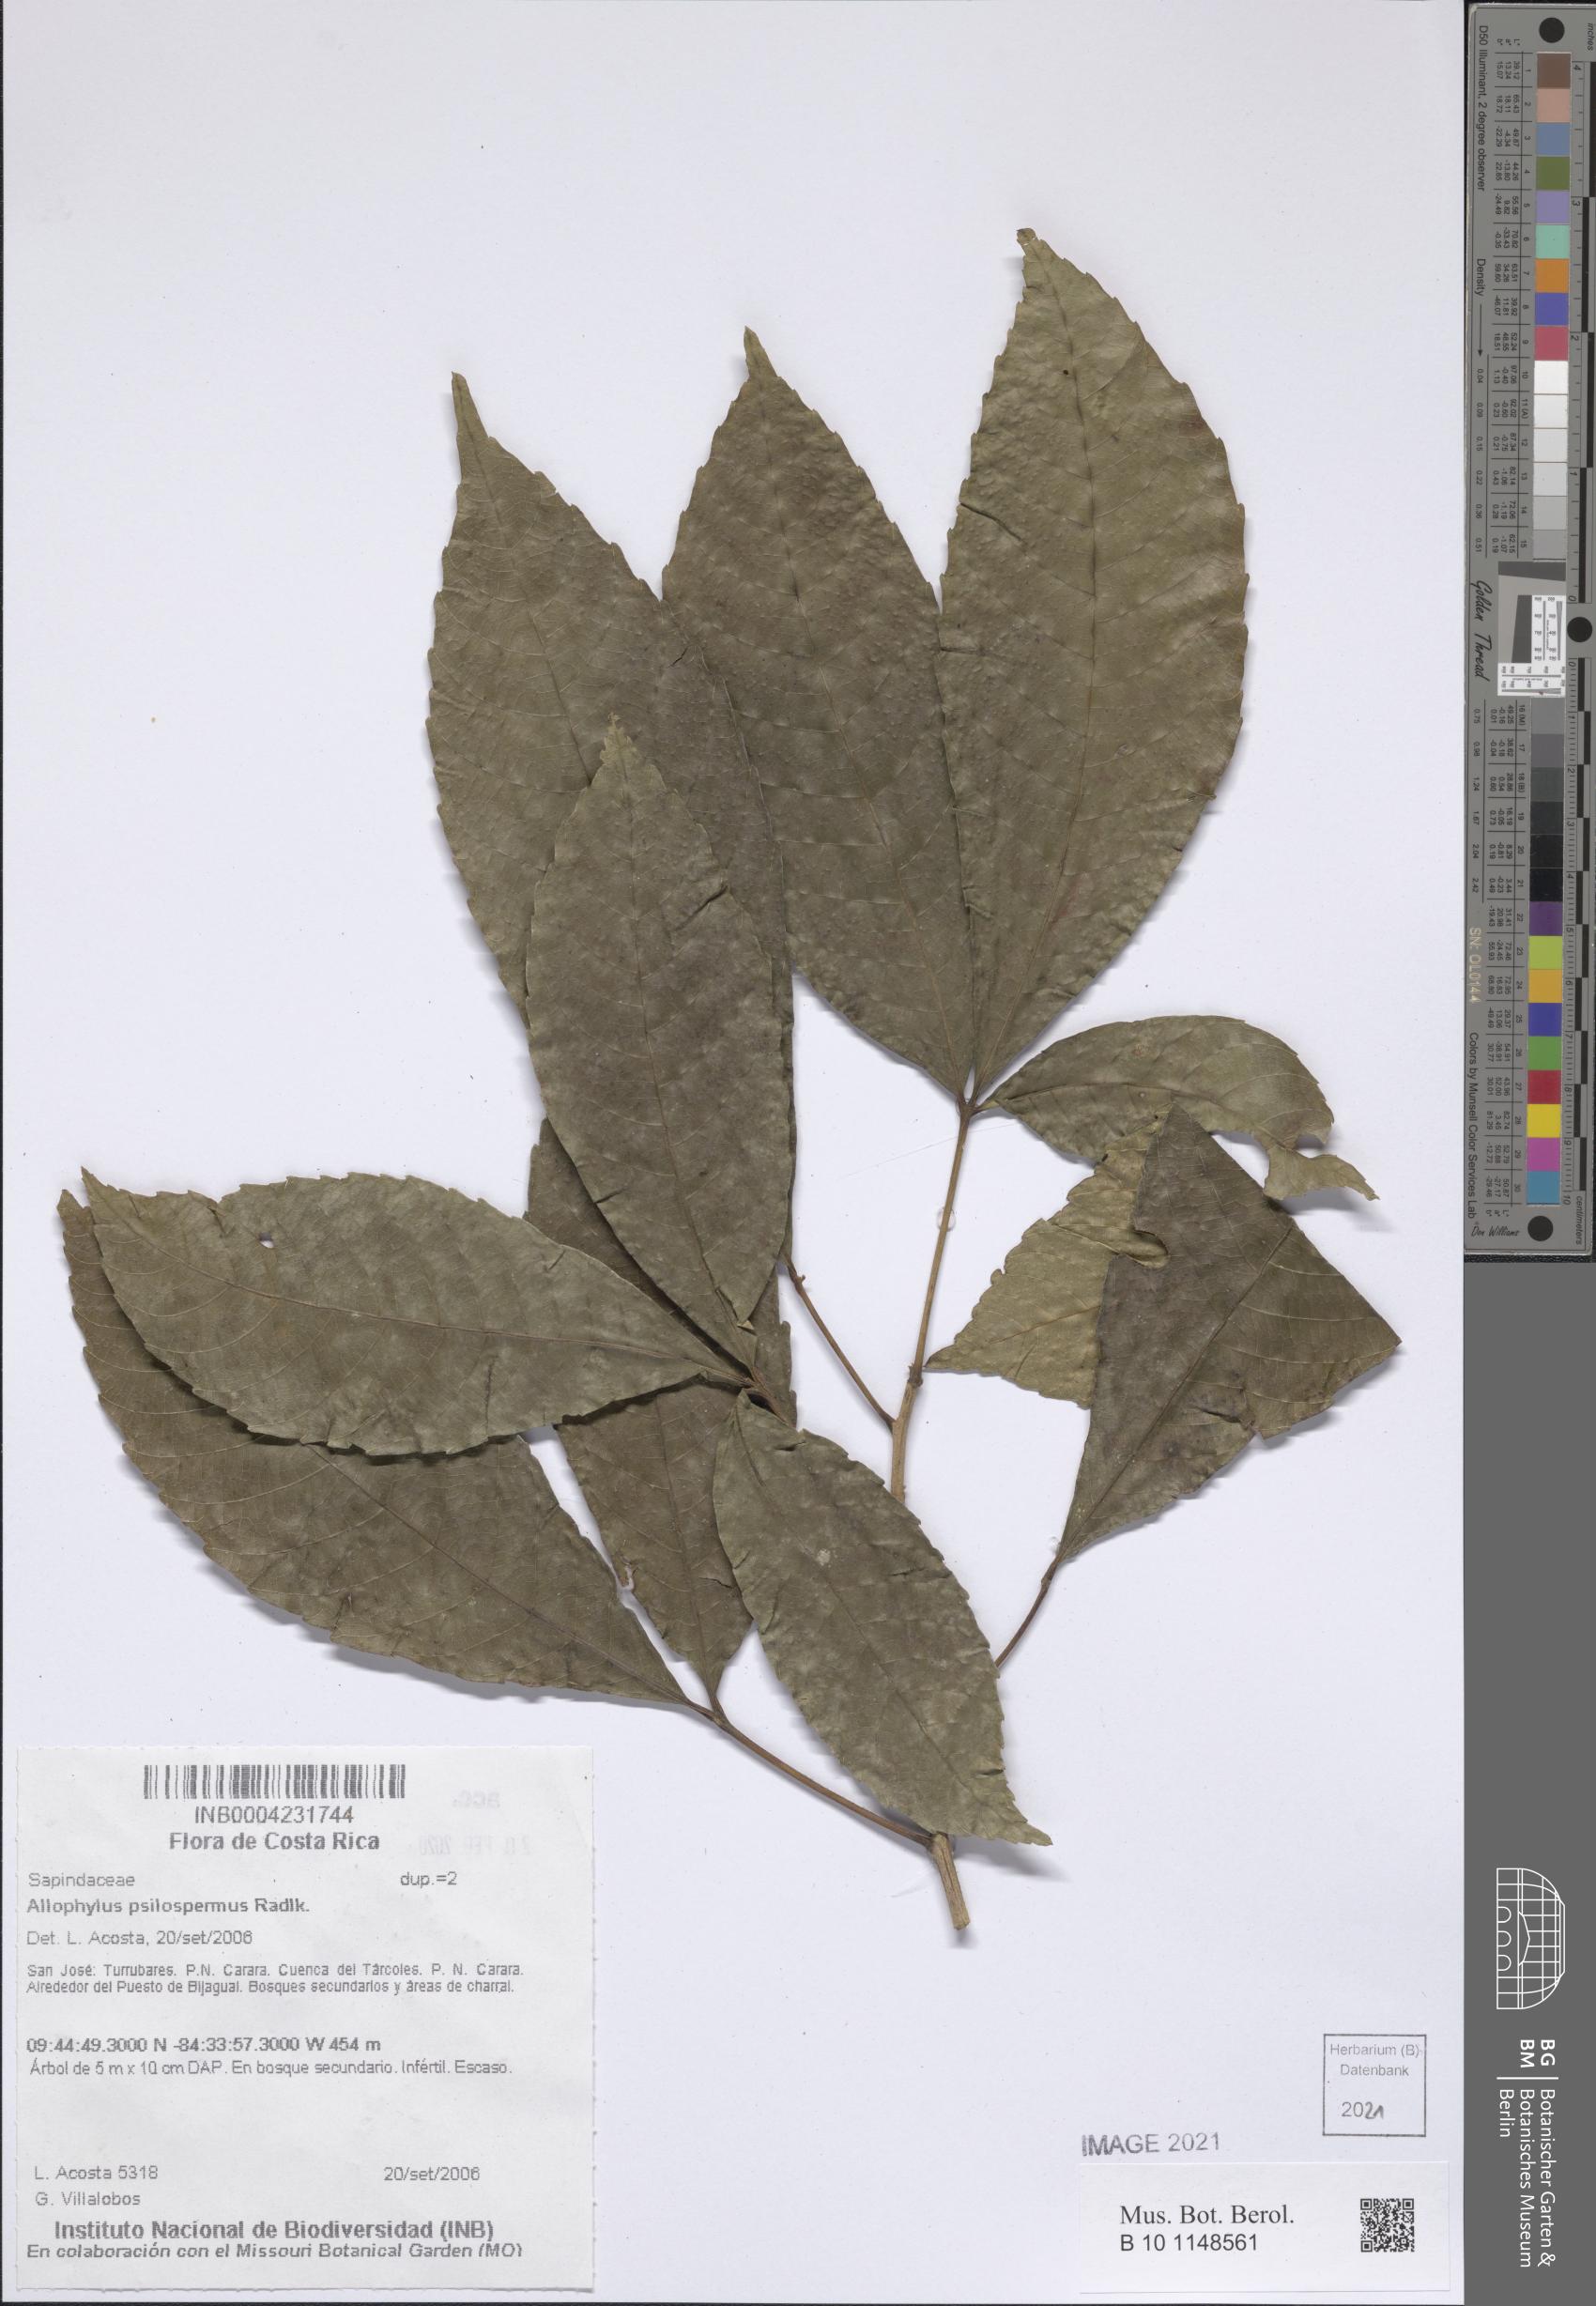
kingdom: Plantae
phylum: Tracheophyta
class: Magnoliopsida
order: Sapindales
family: Sapindaceae
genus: Allophylus
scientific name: Allophylus psilospermus
